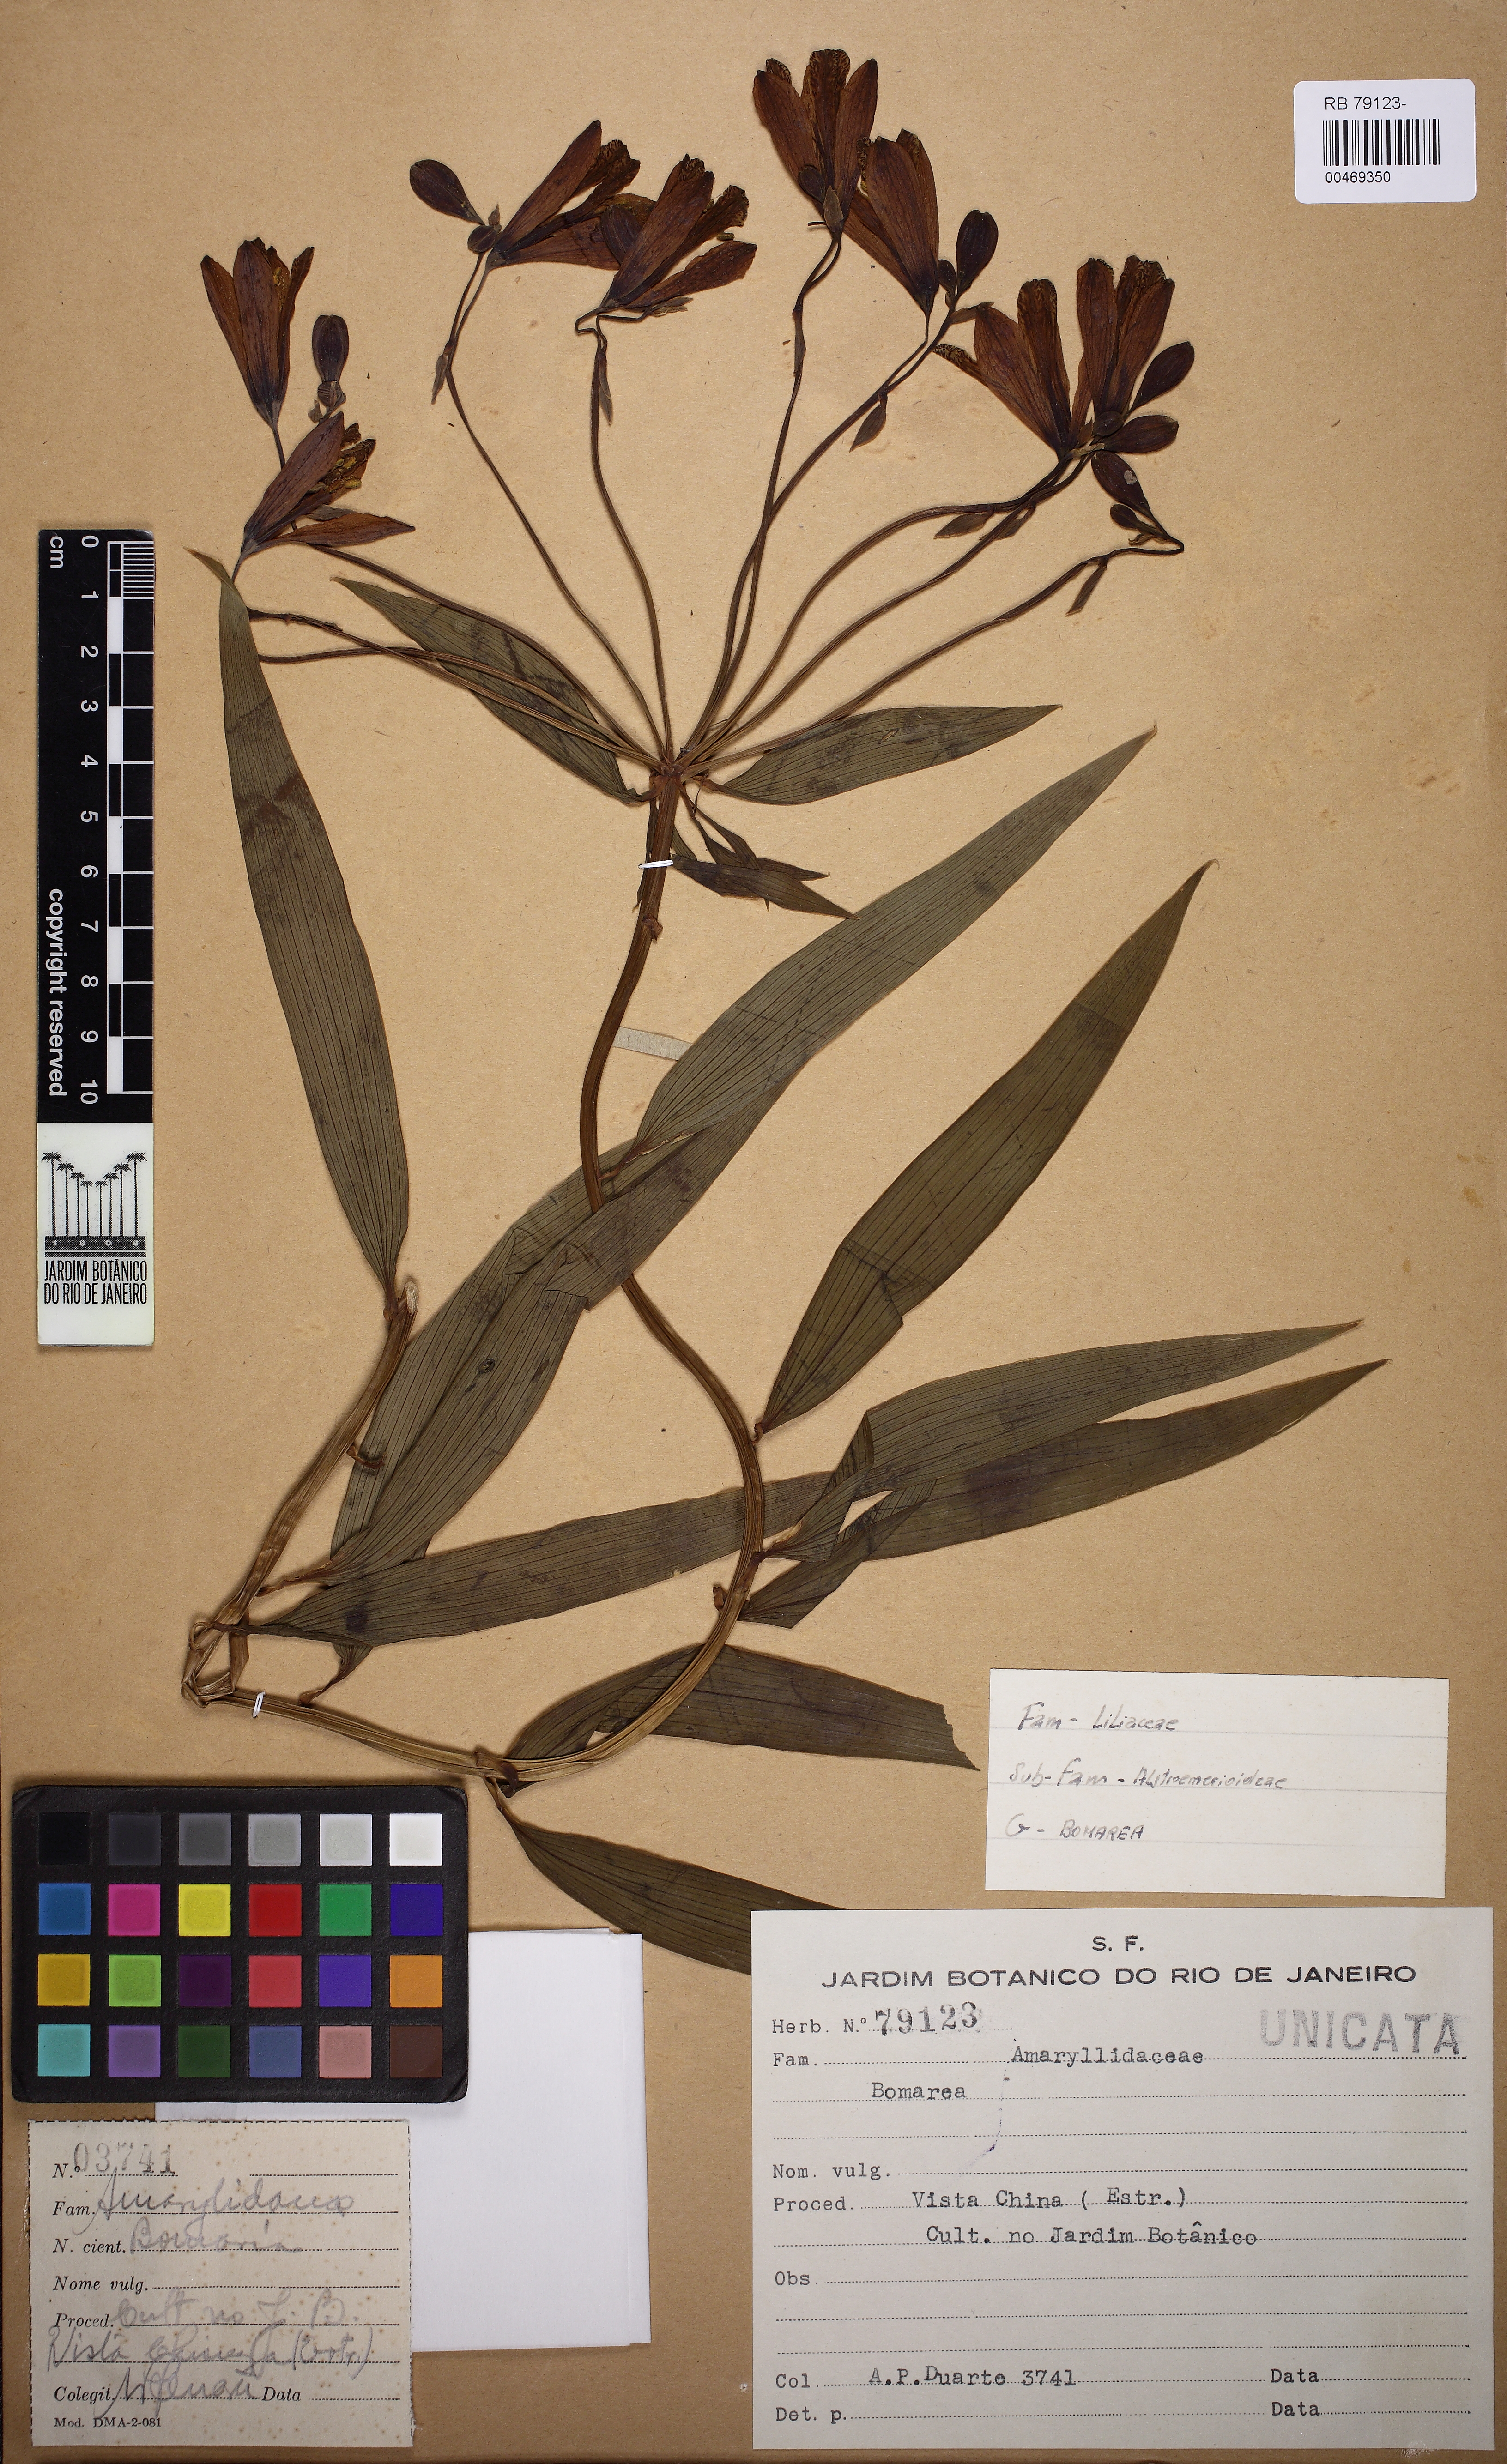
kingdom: Plantae
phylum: Tracheophyta
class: Liliopsida
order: Liliales
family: Alstroemeriaceae
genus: Bomarea
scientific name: Bomarea
